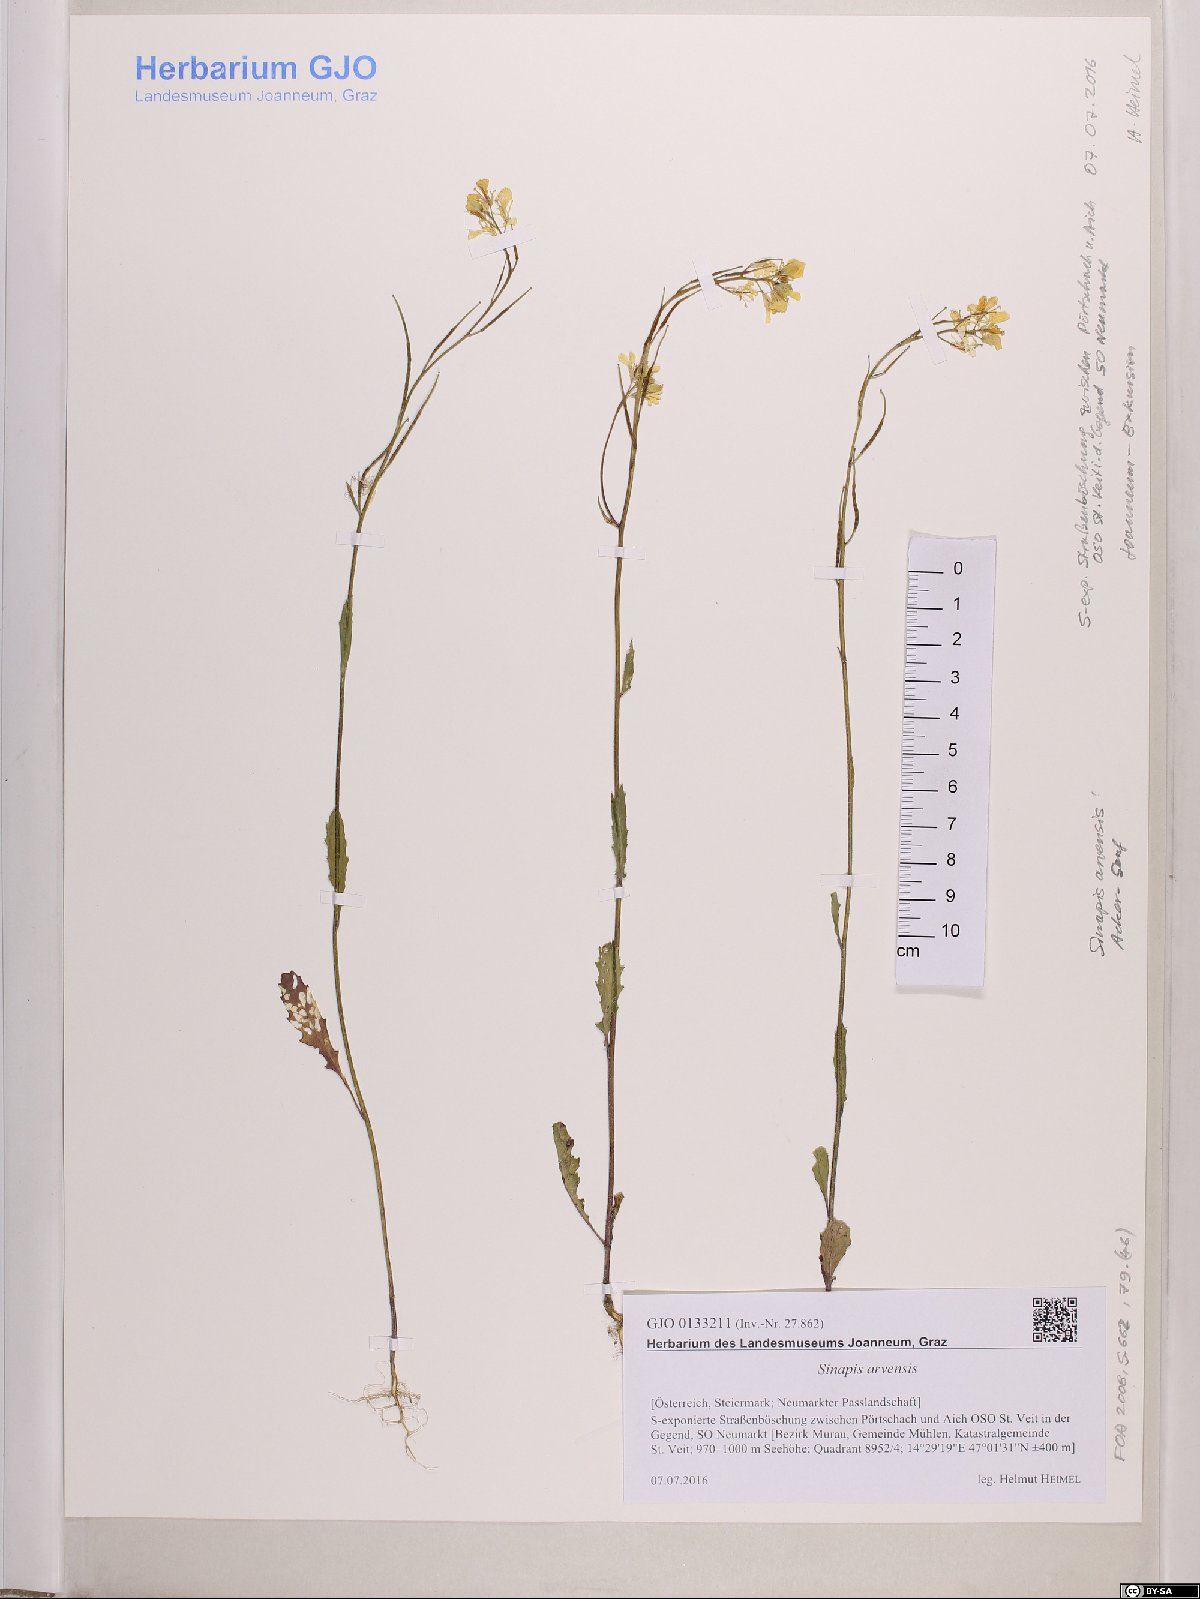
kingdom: Plantae
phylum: Tracheophyta
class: Magnoliopsida
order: Brassicales
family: Brassicaceae
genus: Sinapis
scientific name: Sinapis arvensis
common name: Charlock
